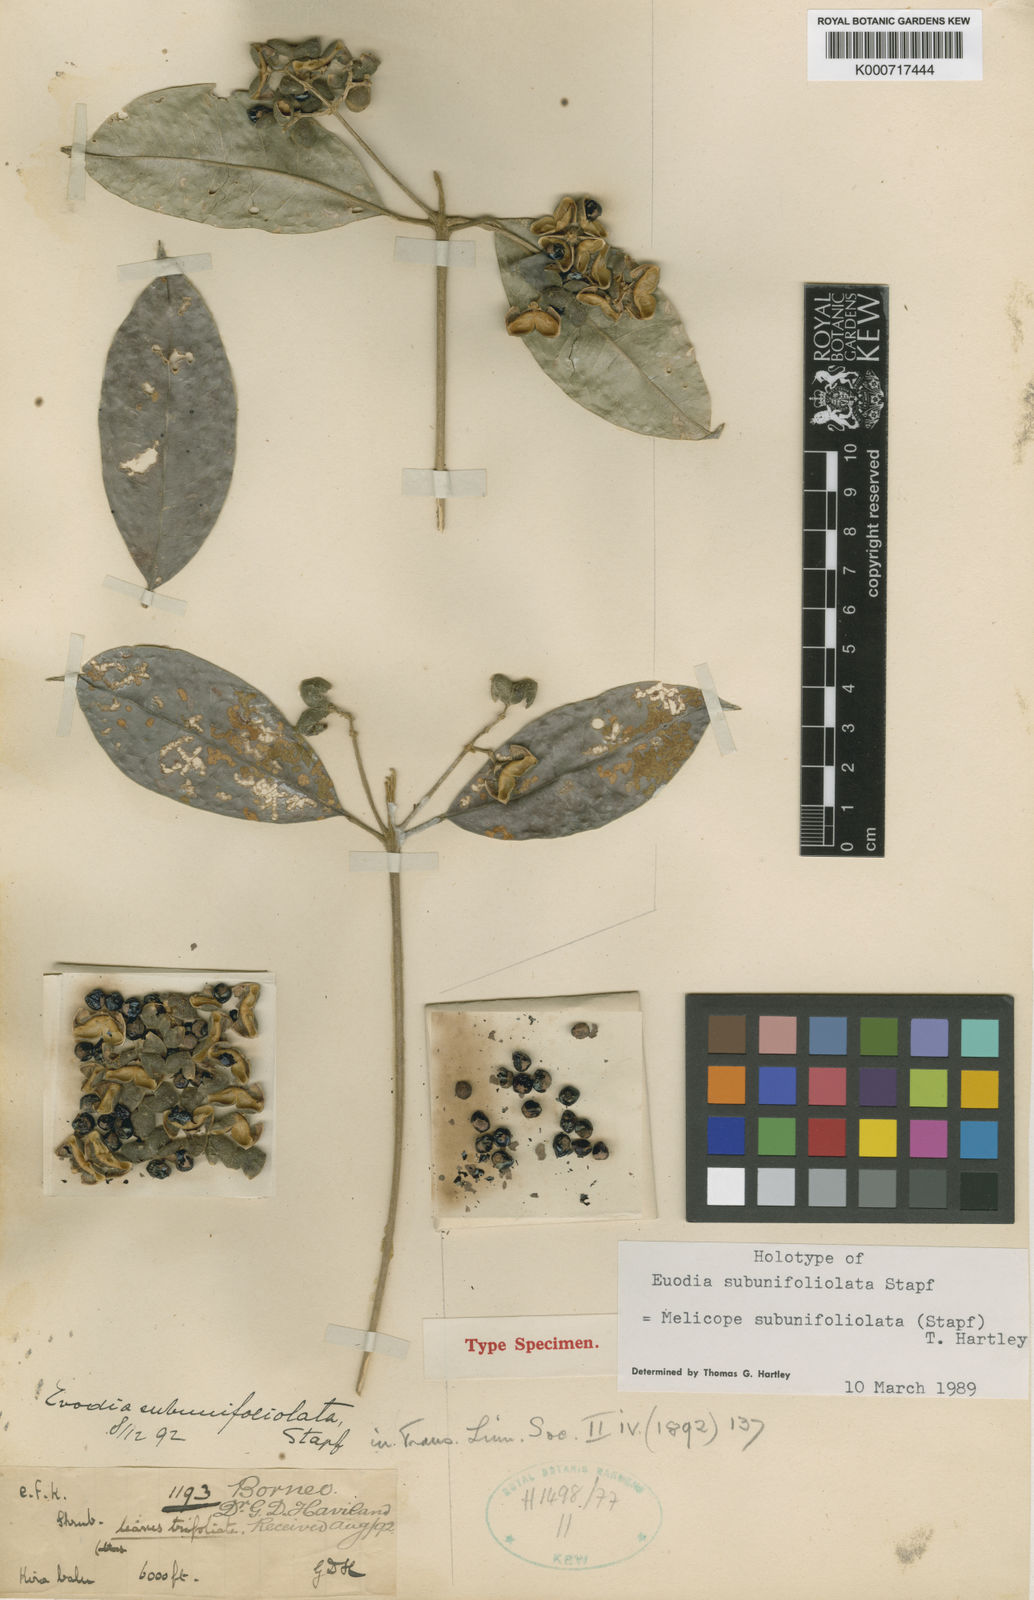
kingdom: Plantae
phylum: Tracheophyta
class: Magnoliopsida
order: Sapindales
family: Rutaceae
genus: Melicope
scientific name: Melicope subunifoliolata
